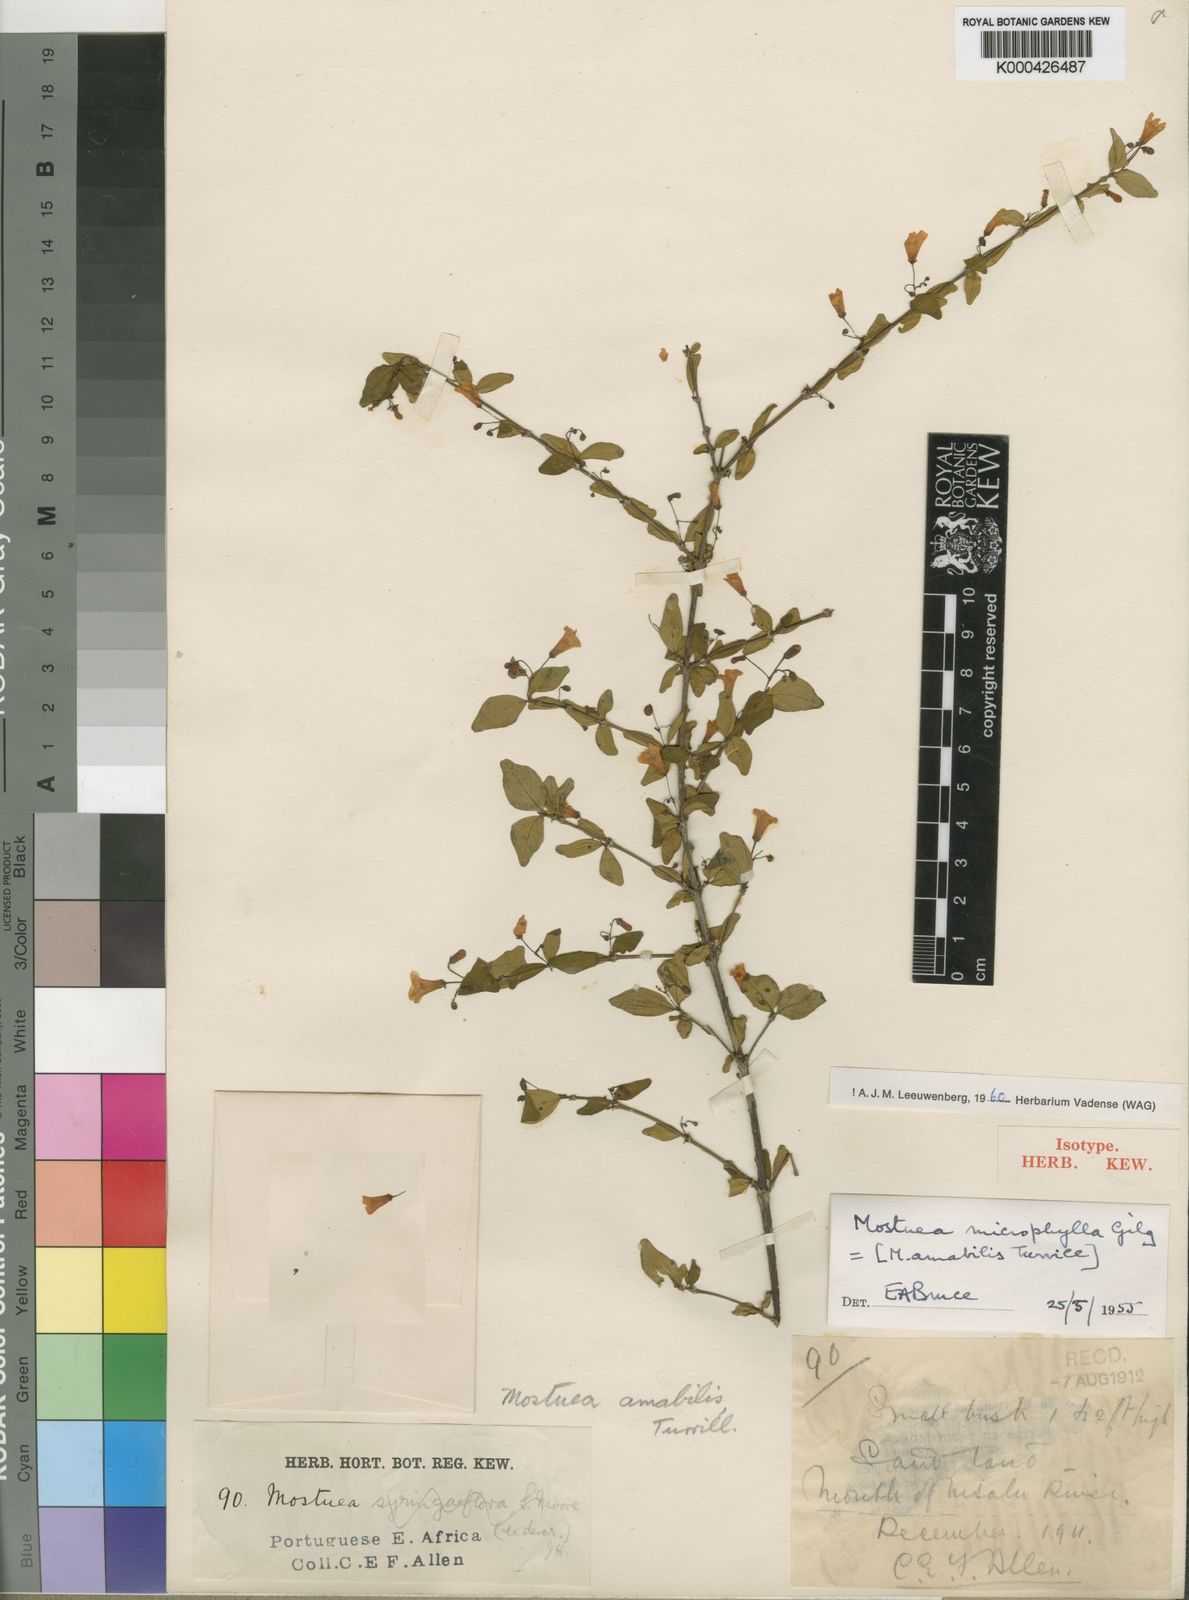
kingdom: Plantae
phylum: Tracheophyta
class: Magnoliopsida
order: Gentianales
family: Gelsemiaceae
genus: Mostuea
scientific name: Mostuea microphylla
